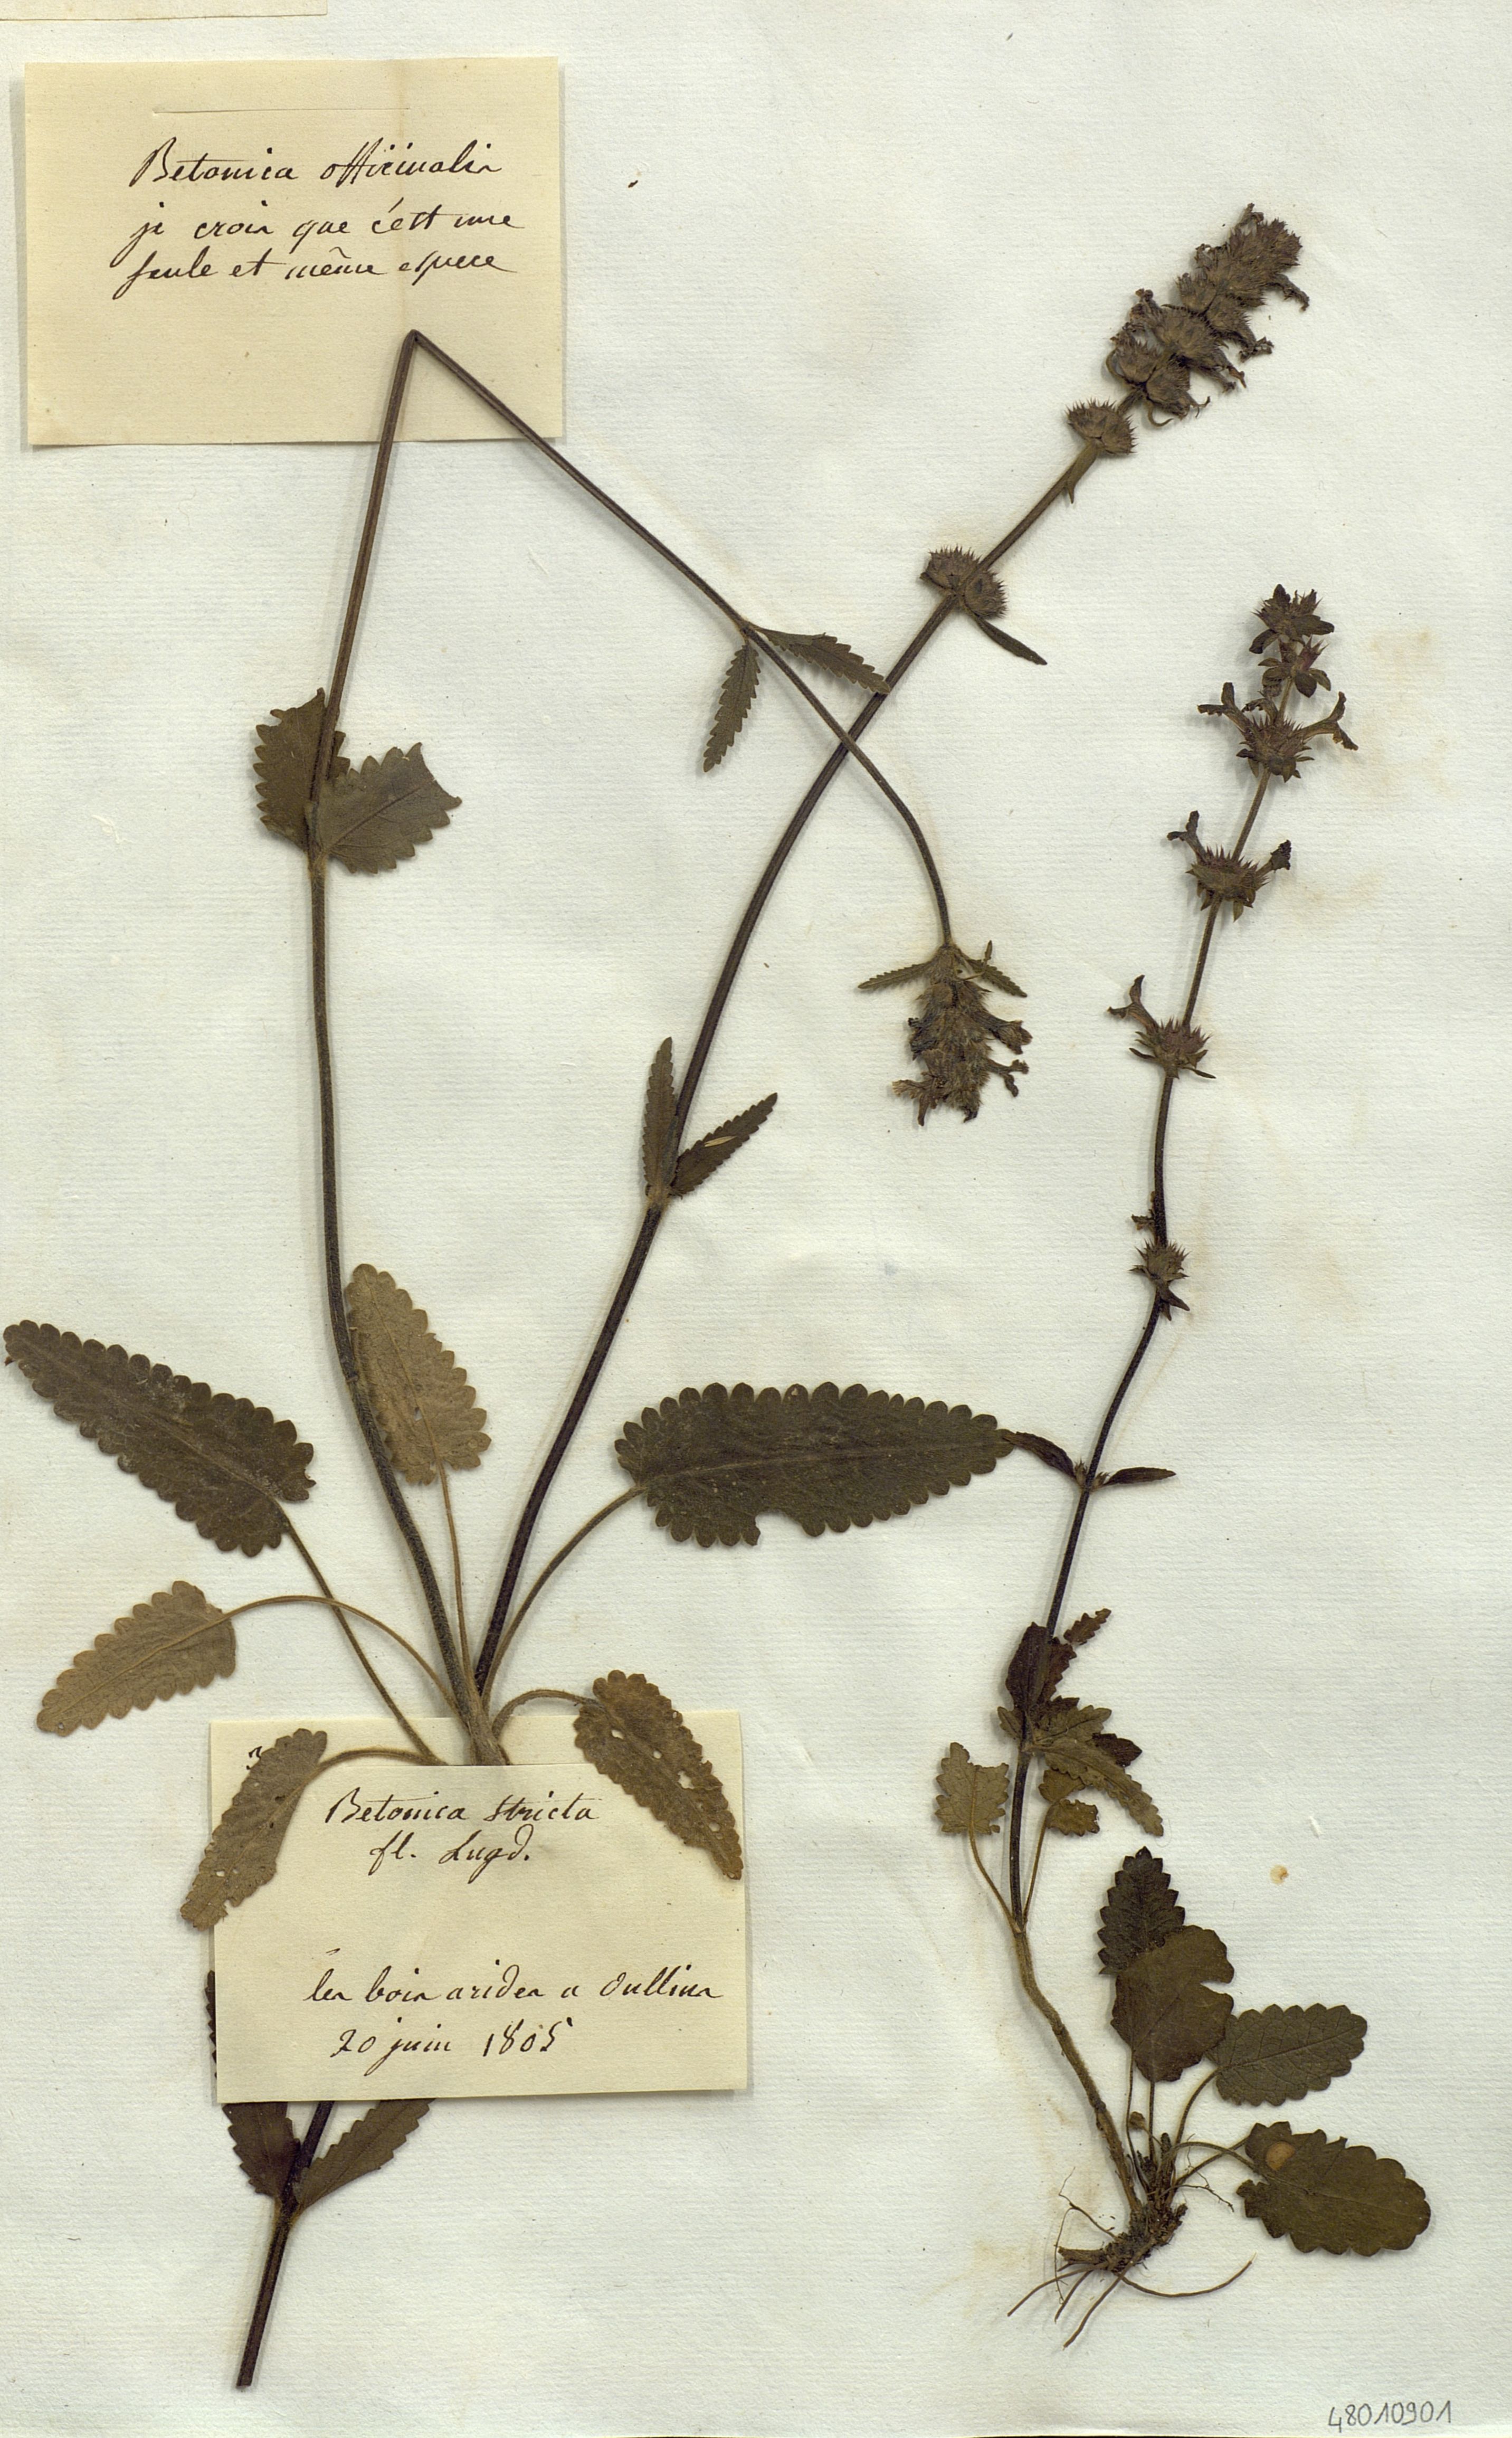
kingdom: Plantae
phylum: Tracheophyta
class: Magnoliopsida
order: Lamiales
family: Lamiaceae
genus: Betonica
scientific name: Betonica officinalis
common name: Bishop's-wort
